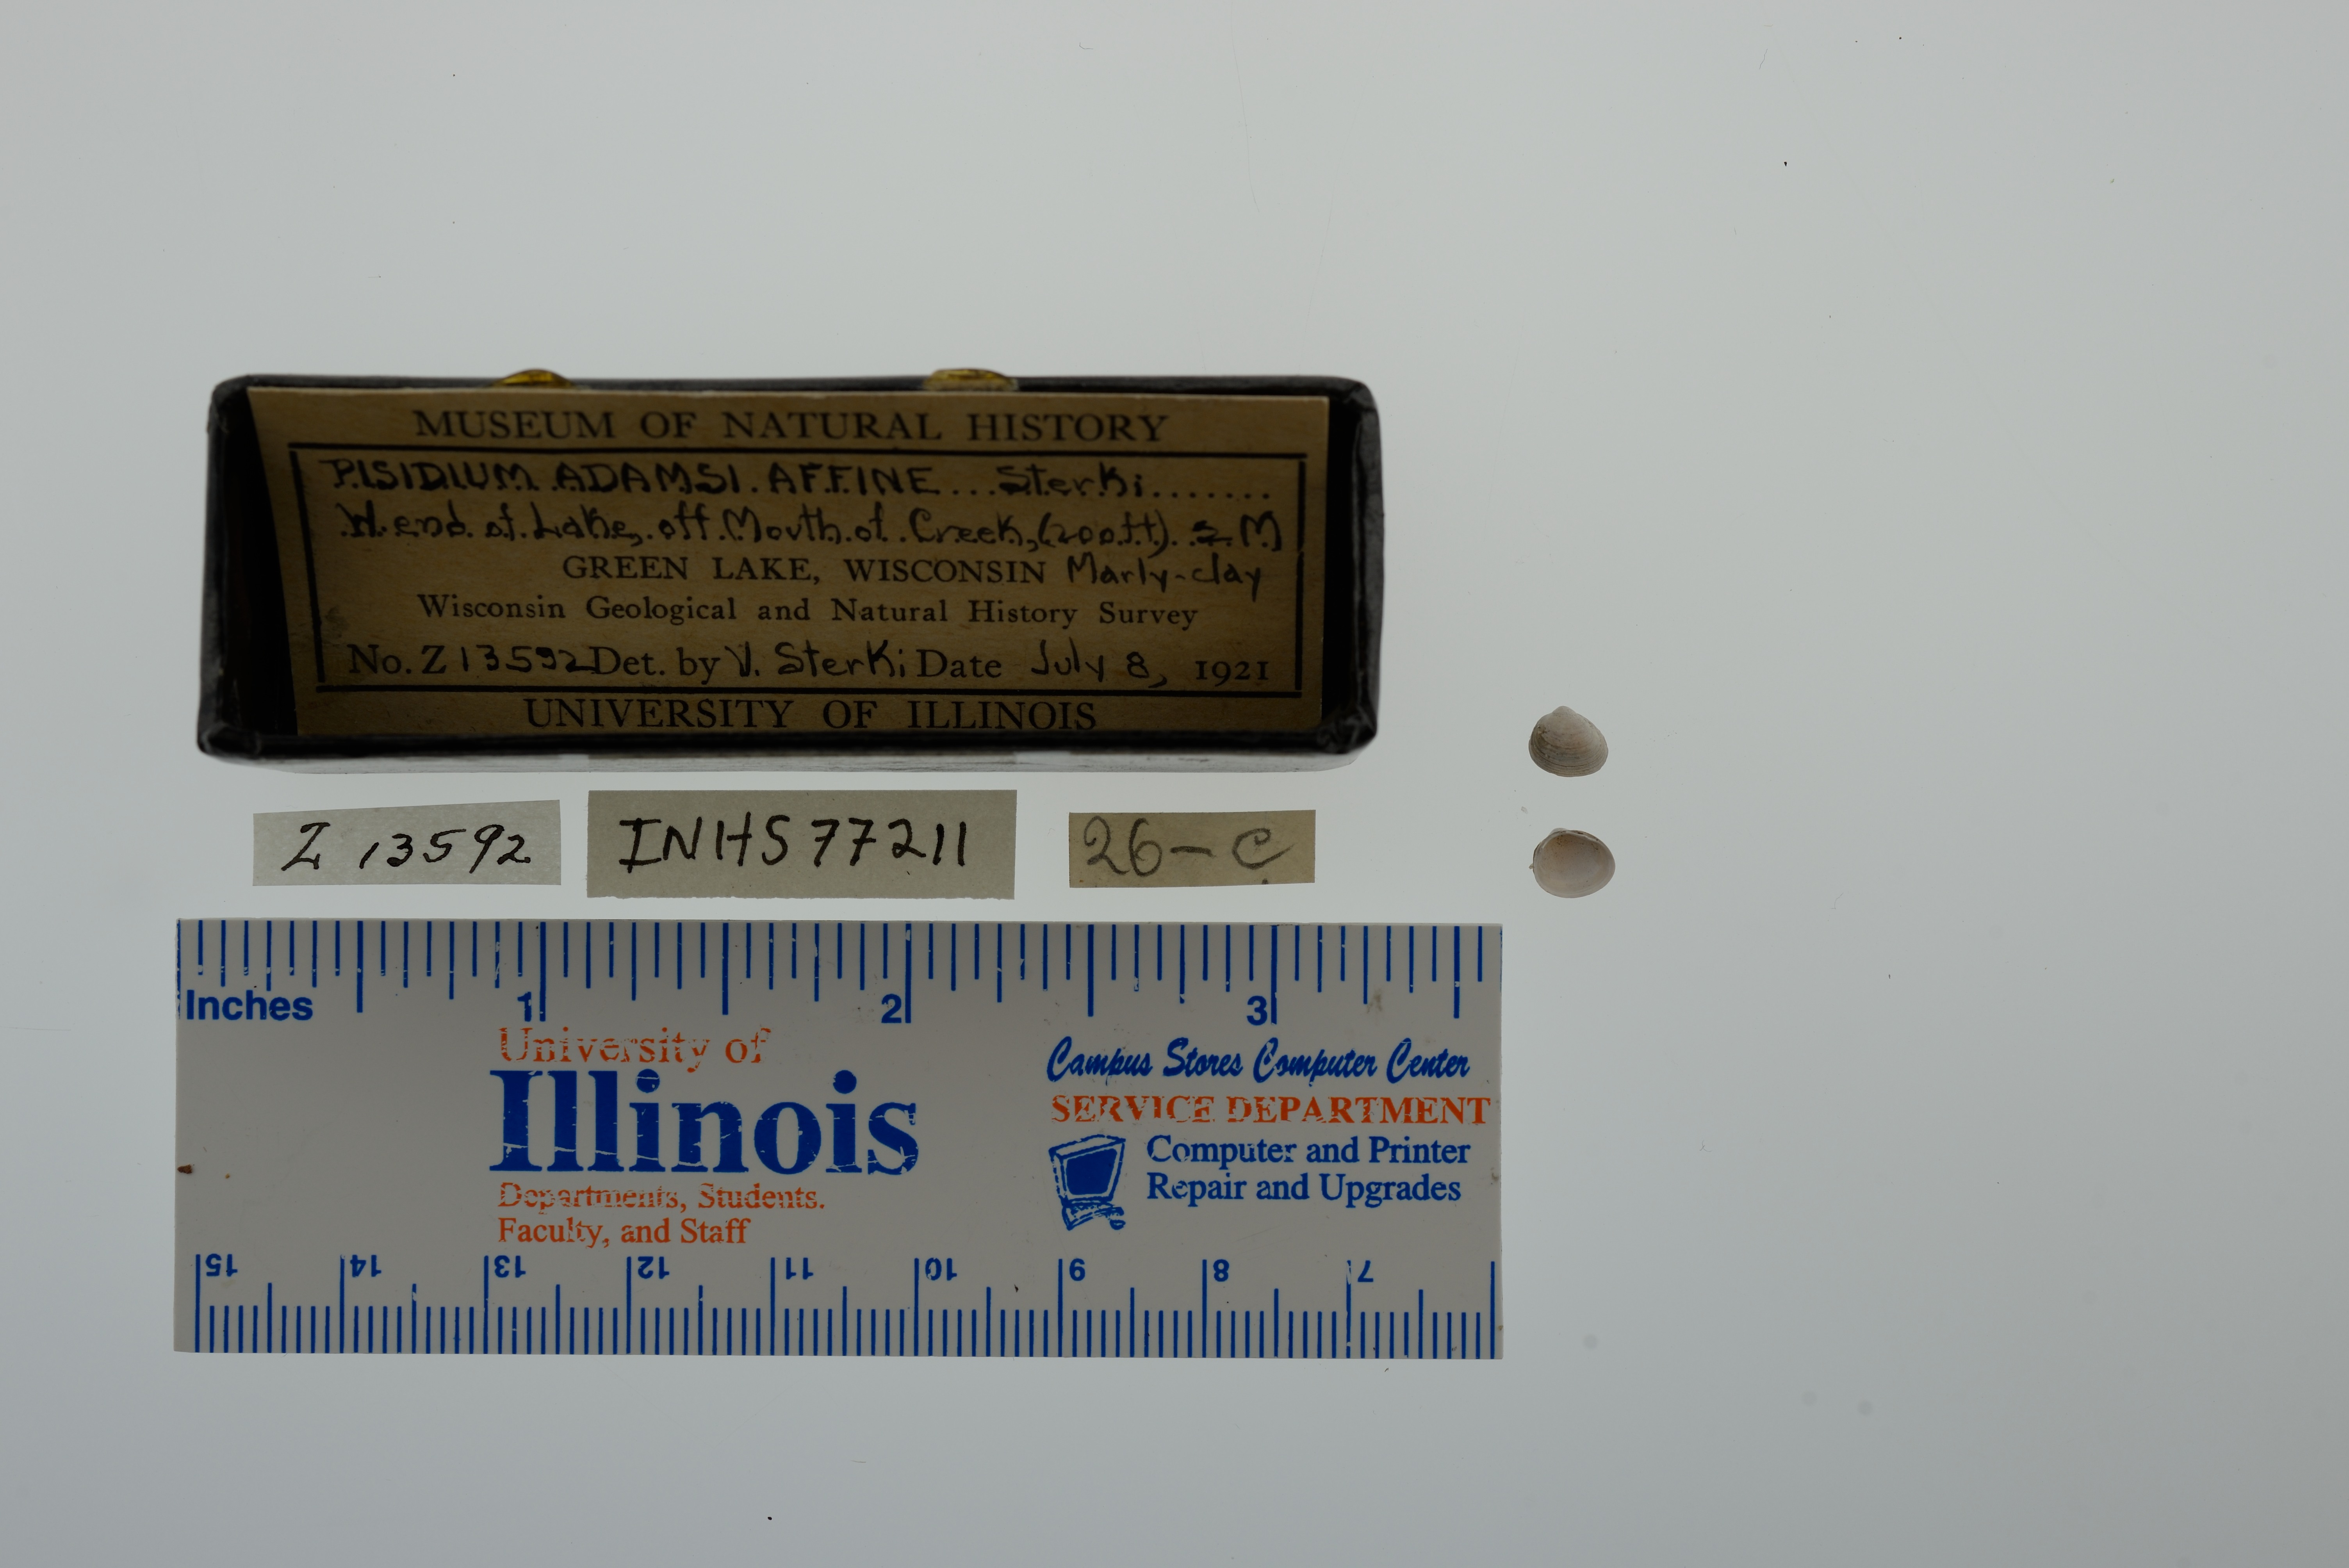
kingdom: Animalia
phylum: Mollusca
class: Bivalvia
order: Sphaeriida
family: Sphaeriidae
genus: Euglesa
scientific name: Euglesa adamsii
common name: Adam peaclam
